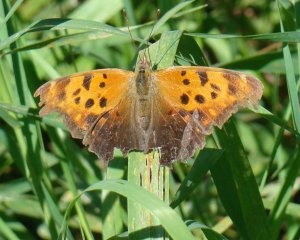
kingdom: Animalia
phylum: Arthropoda
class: Insecta
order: Lepidoptera
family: Nymphalidae
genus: Polygonia
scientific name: Polygonia interrogationis
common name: Question Mark
